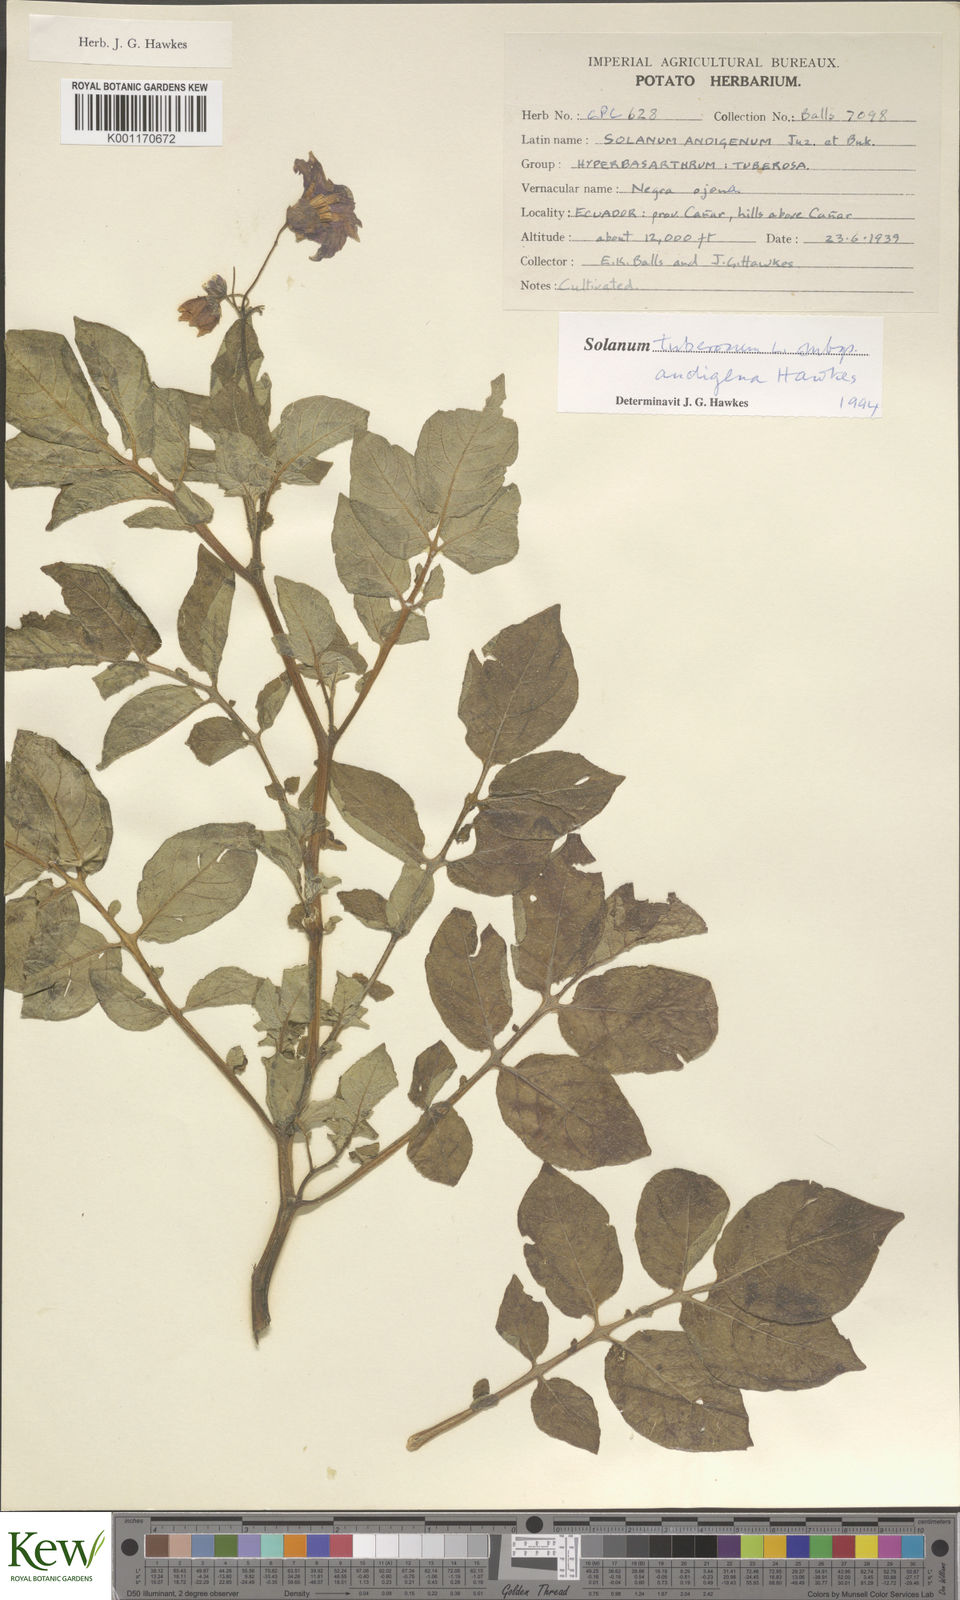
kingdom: Plantae
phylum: Tracheophyta
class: Magnoliopsida
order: Solanales
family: Solanaceae
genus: Solanum
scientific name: Solanum tuberosum
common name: Potato
